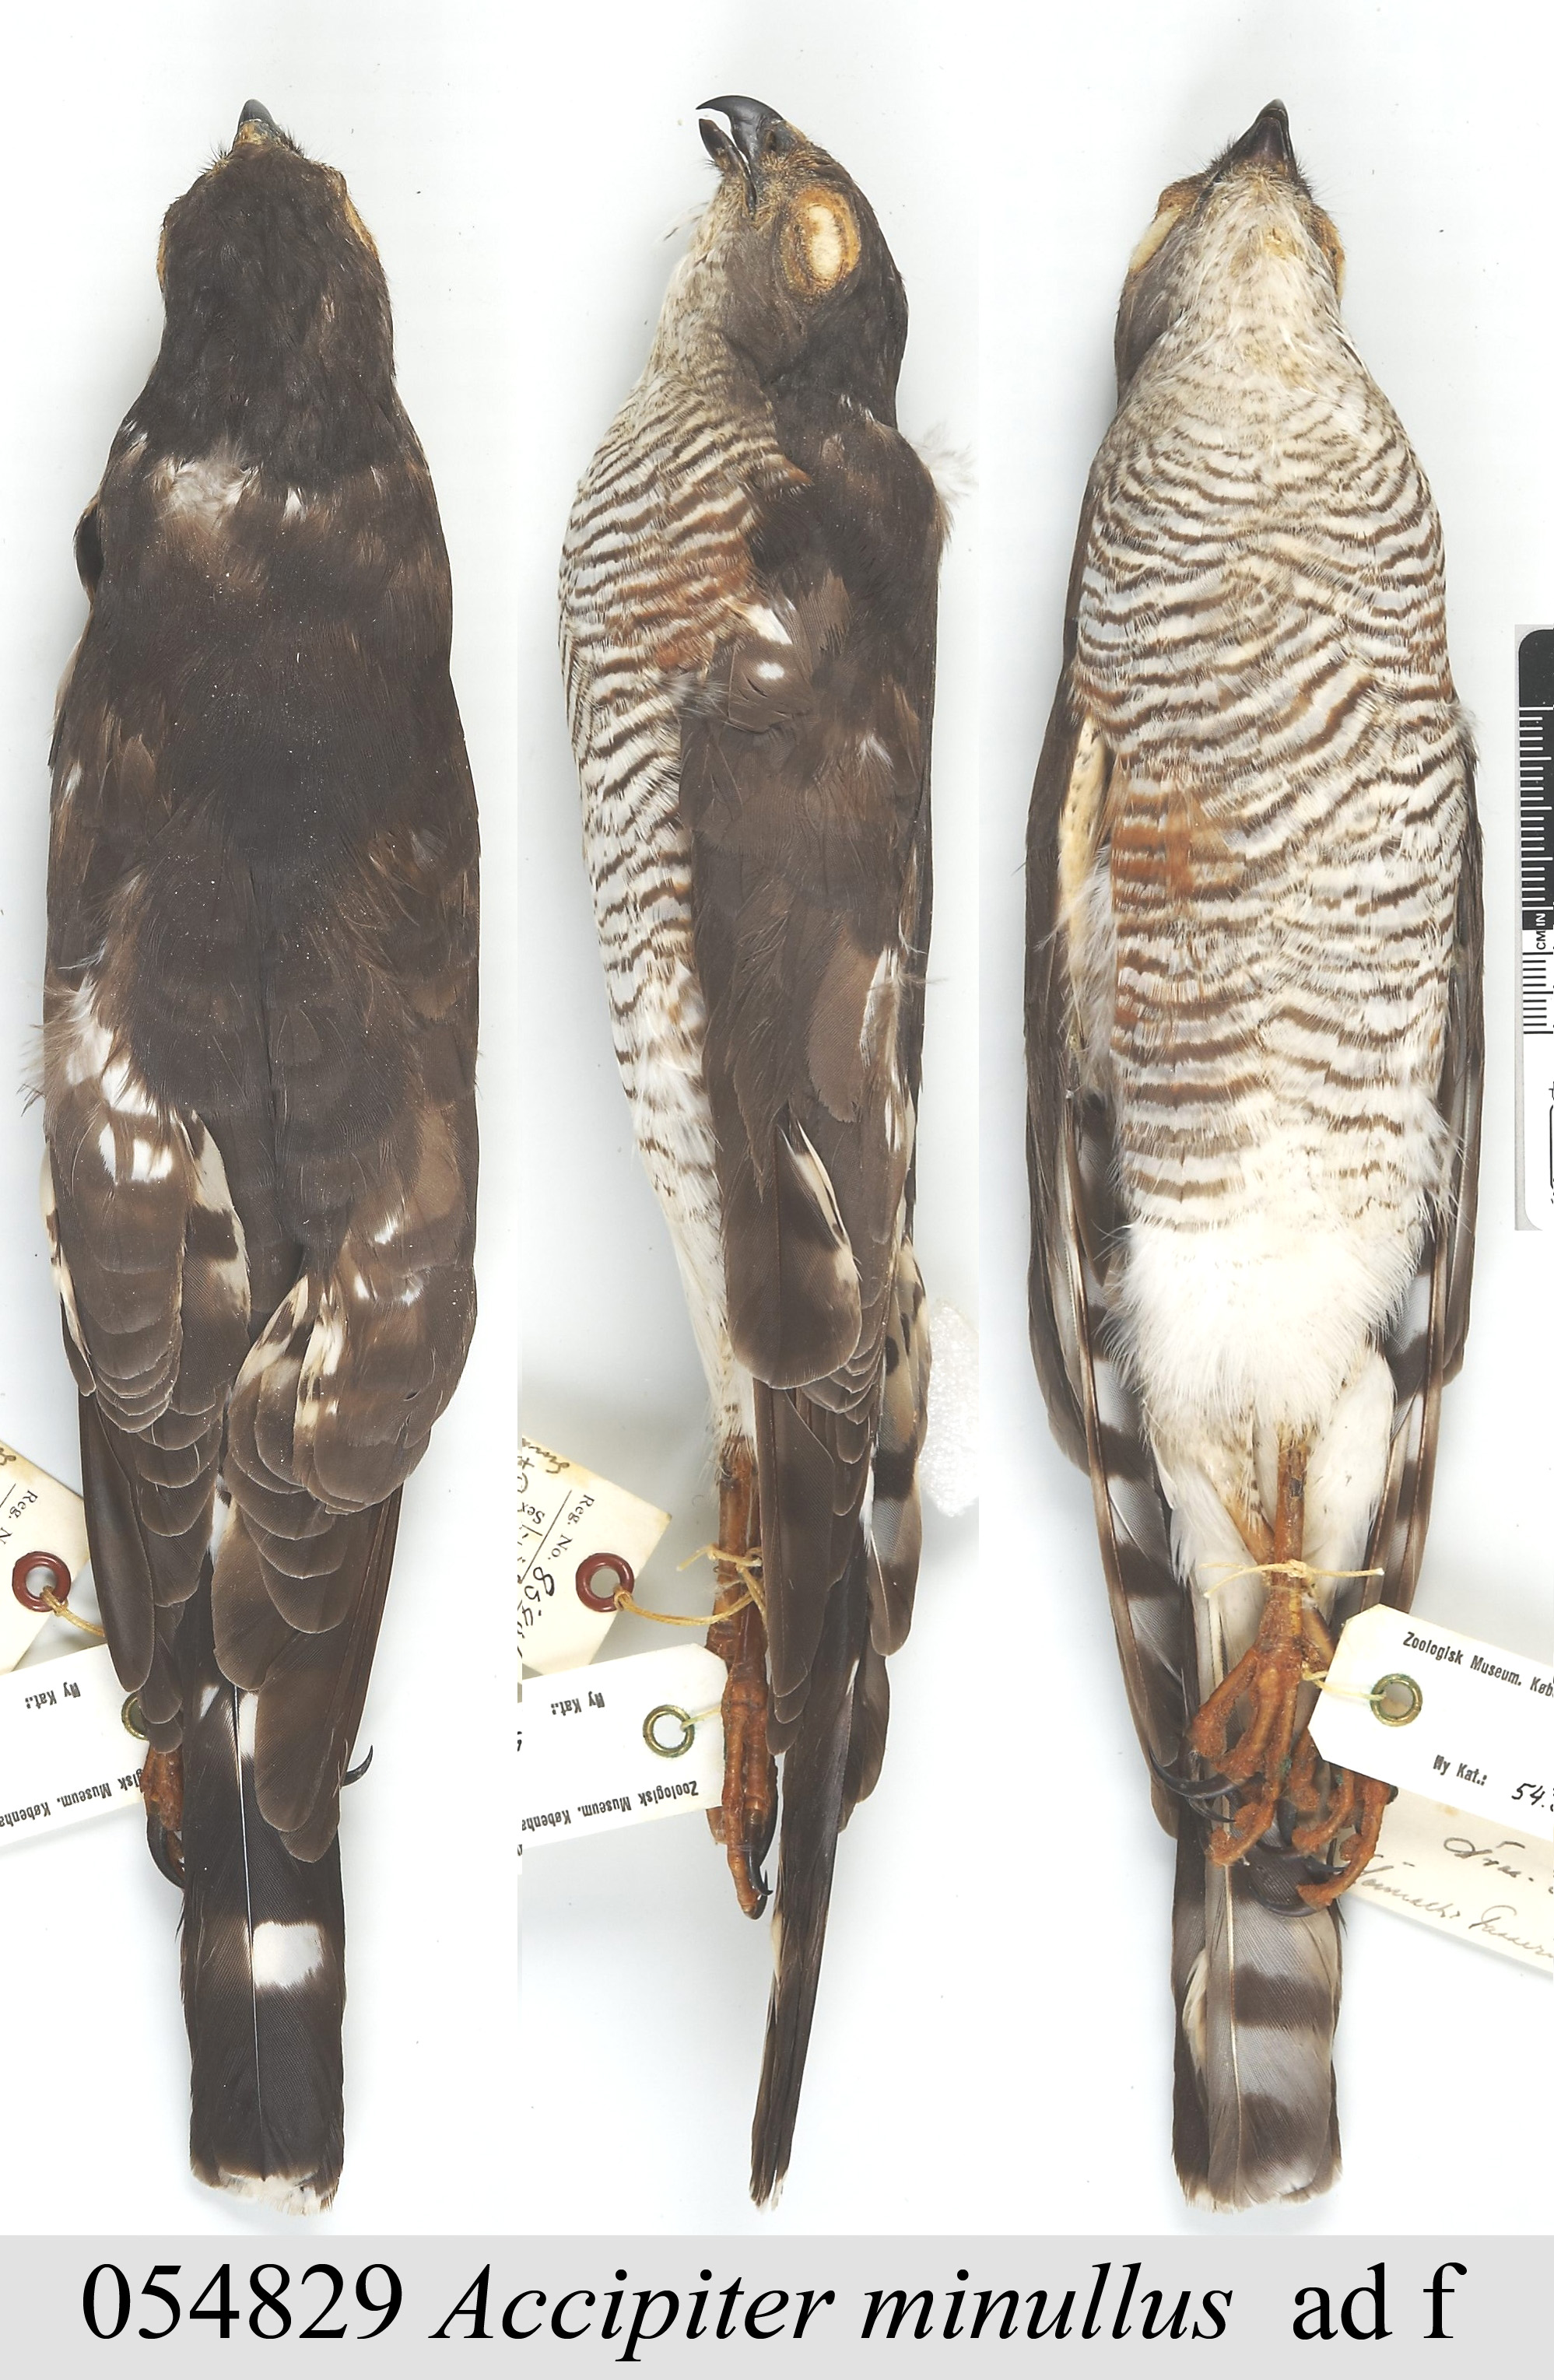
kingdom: Animalia
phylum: Chordata
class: Aves
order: Accipitriformes
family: Accipitridae
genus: Accipiter
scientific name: Accipiter minullus
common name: Little sparrowhawk
